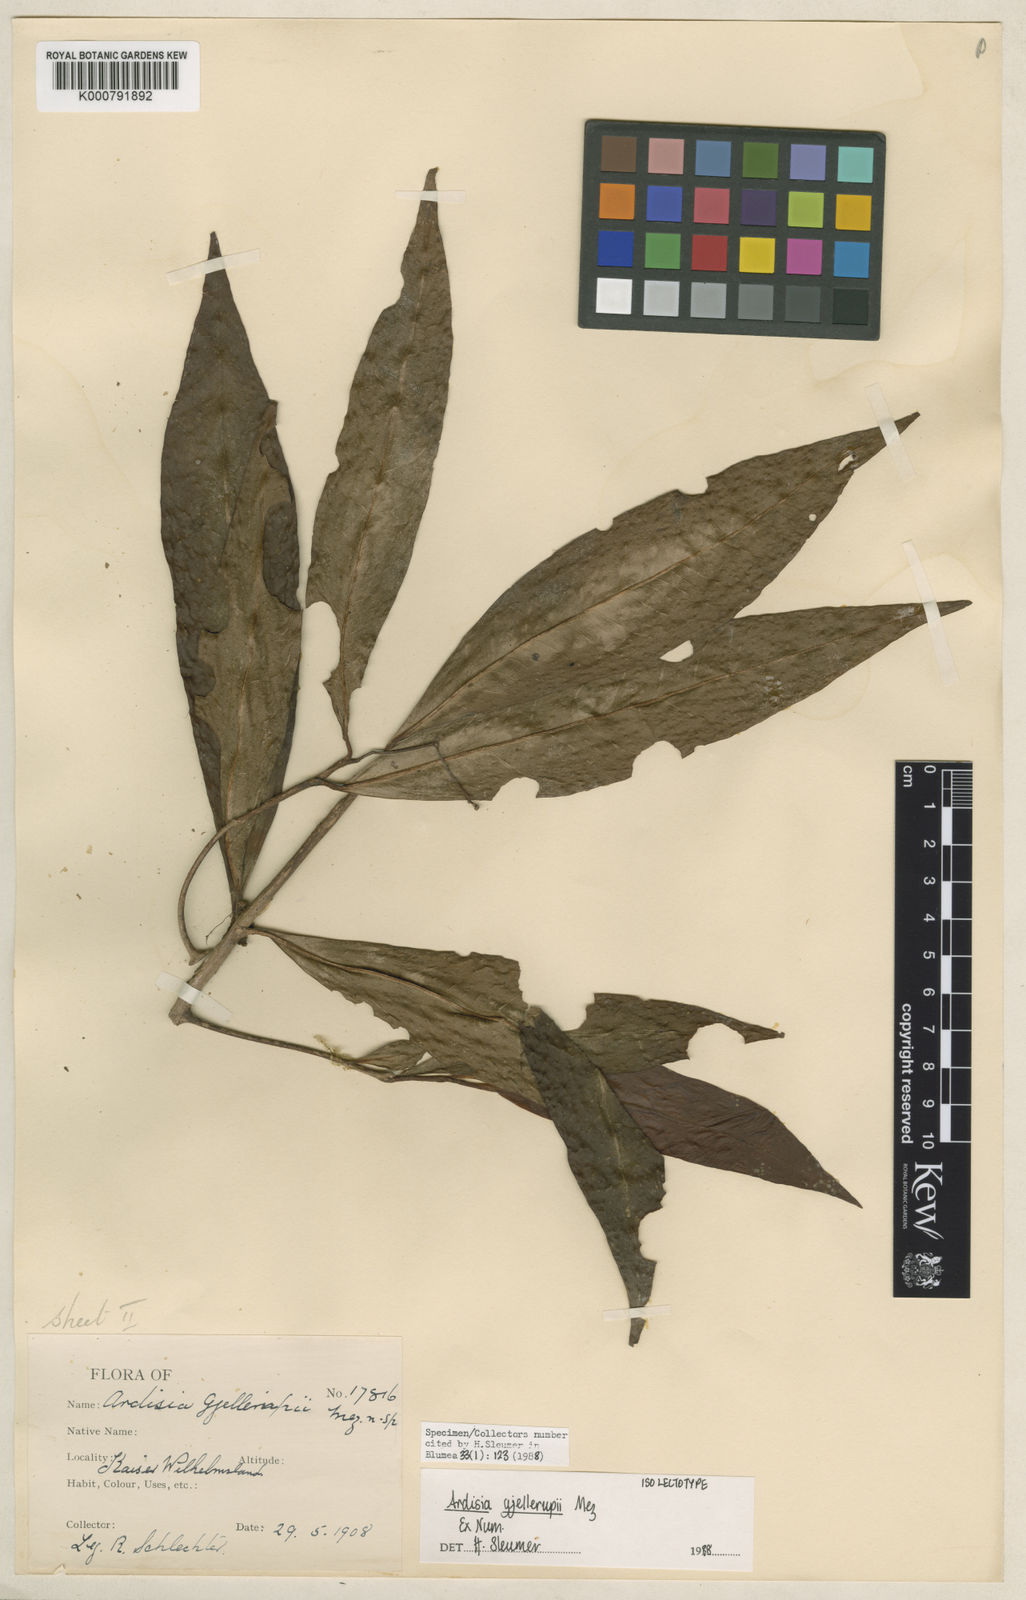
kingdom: Plantae
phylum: Tracheophyta
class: Magnoliopsida
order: Ericales
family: Primulaceae
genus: Ardisia
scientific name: Ardisia gjellerupii
